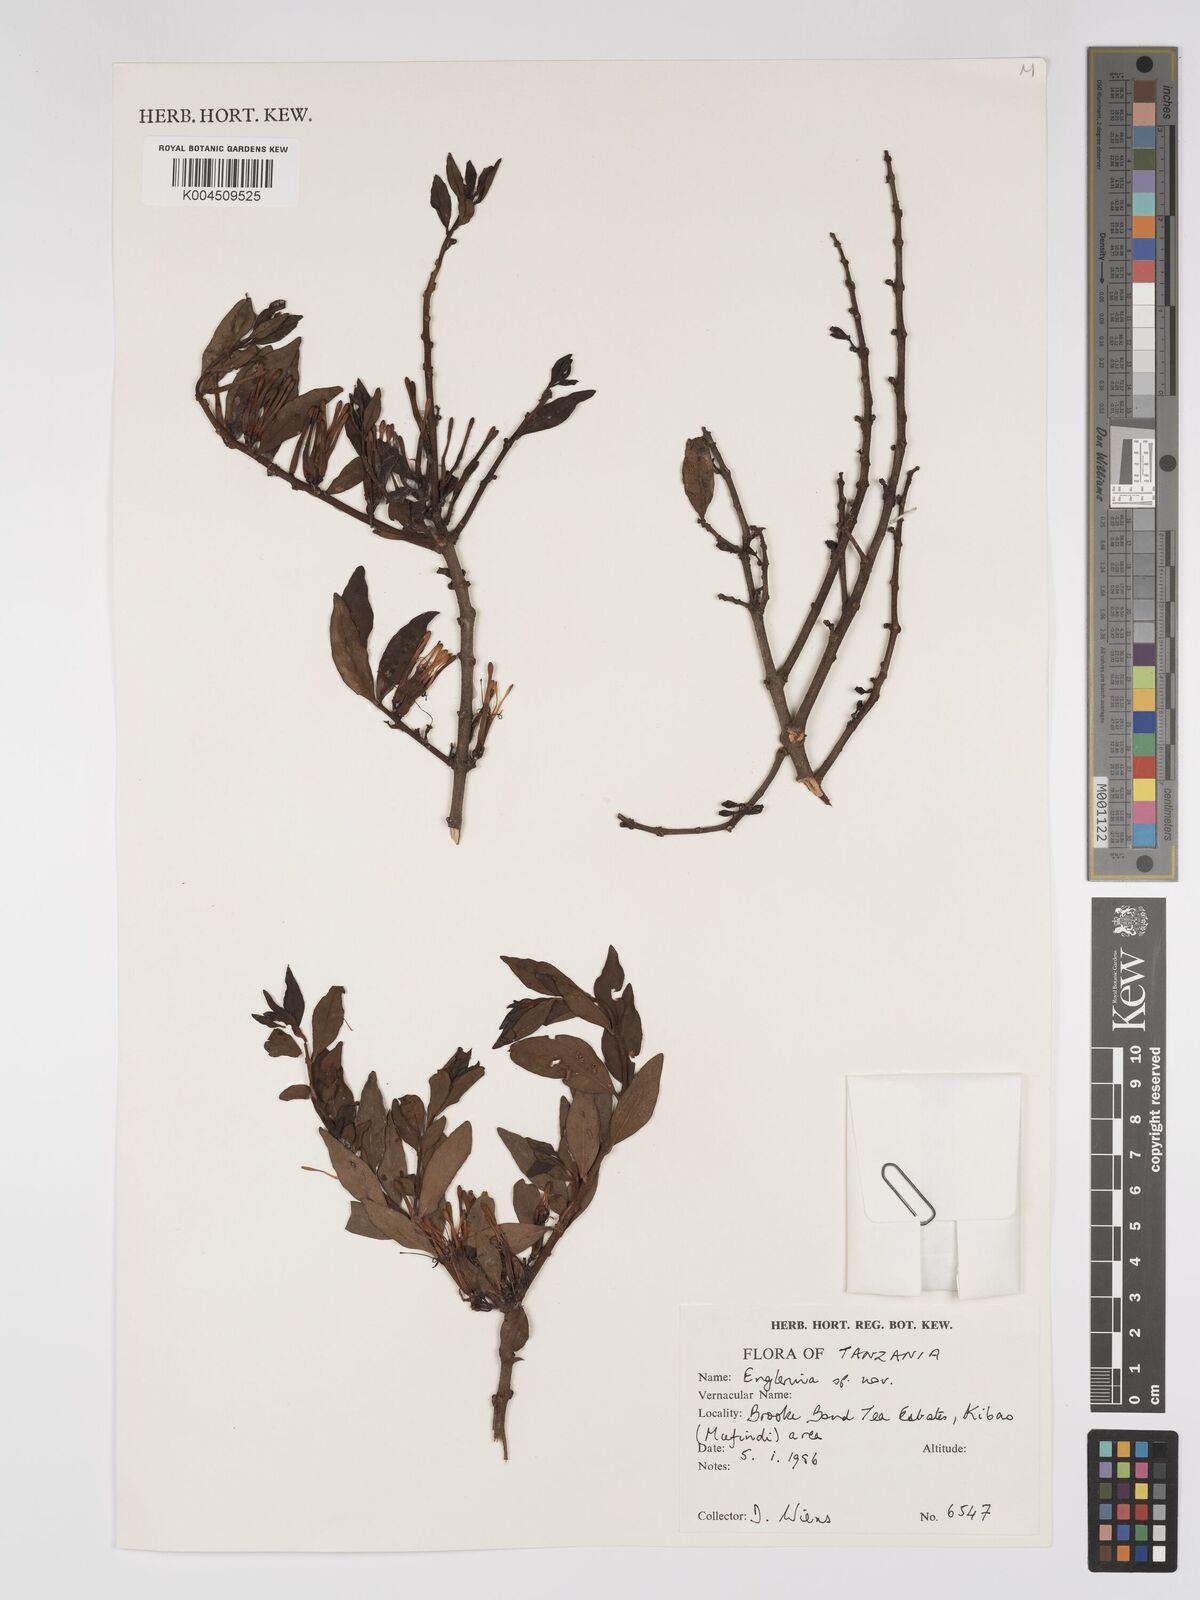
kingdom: Plantae
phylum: Tracheophyta
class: Magnoliopsida
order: Santalales
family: Loranthaceae
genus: Englerina
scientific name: Englerina inaequilatera
